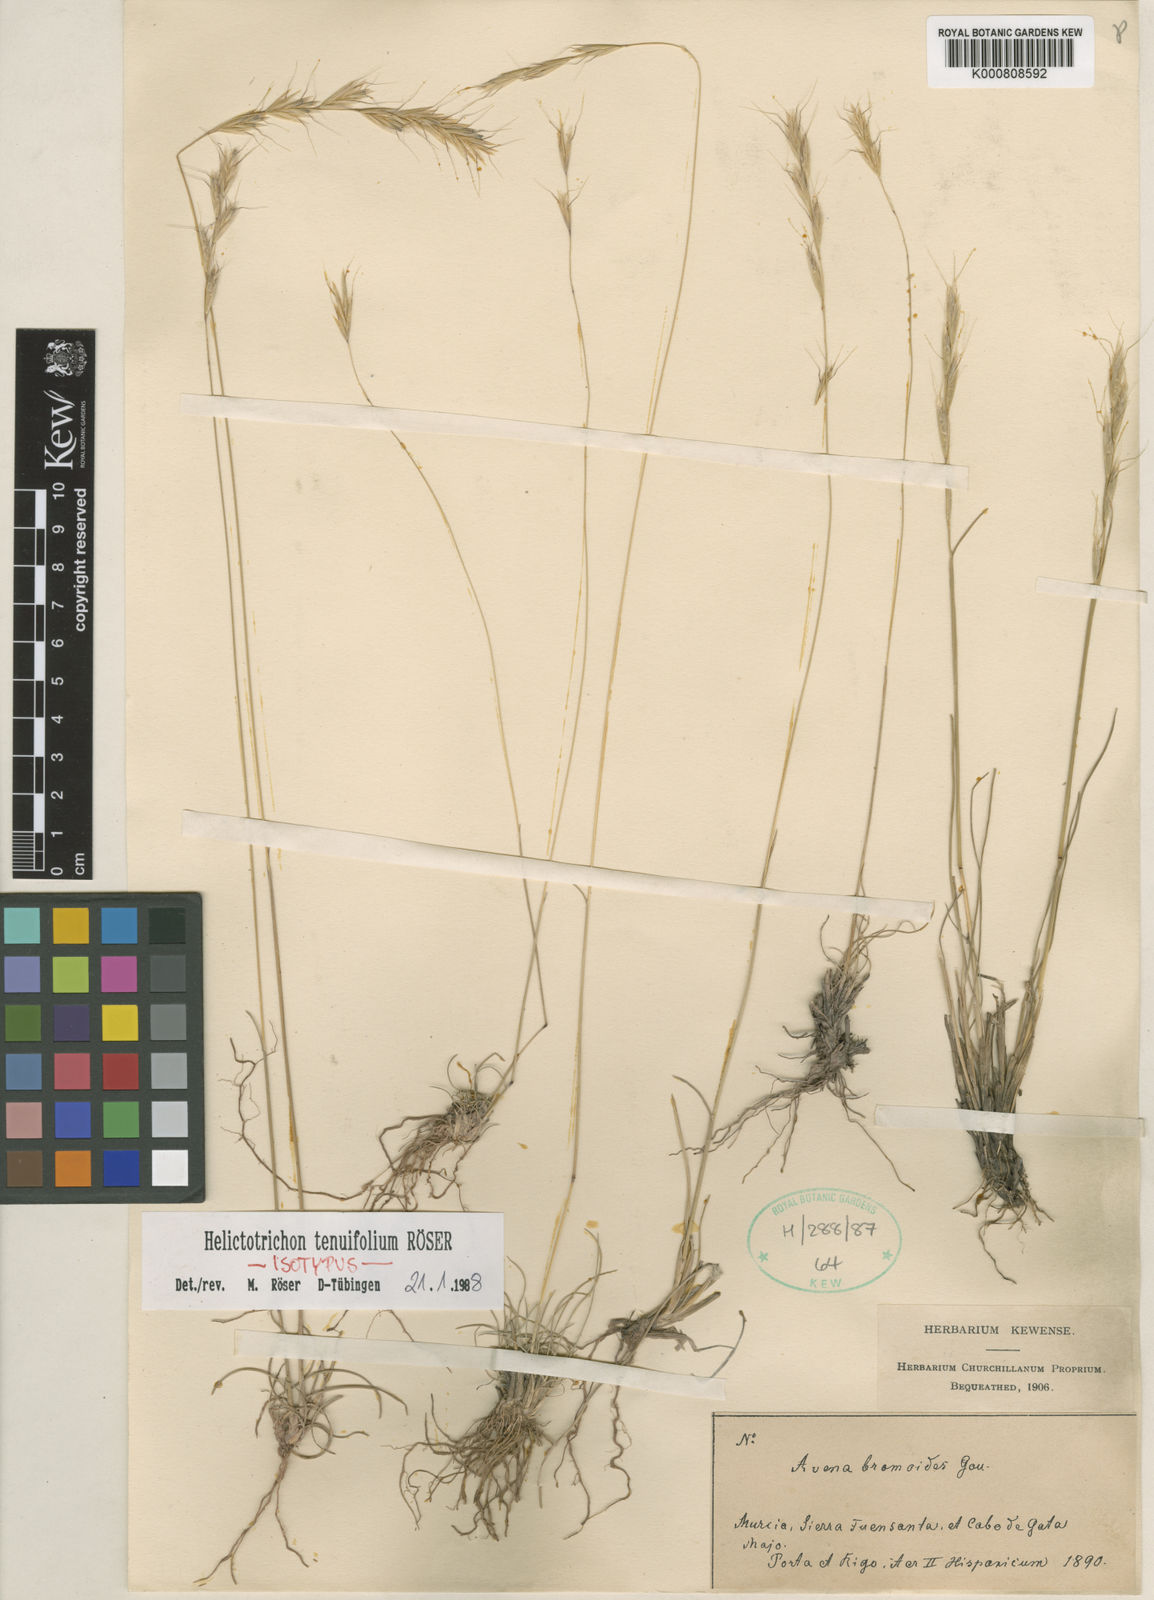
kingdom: Plantae
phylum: Tracheophyta
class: Liliopsida
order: Poales
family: Poaceae
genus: Helictotrichon
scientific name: Helictotrichon
